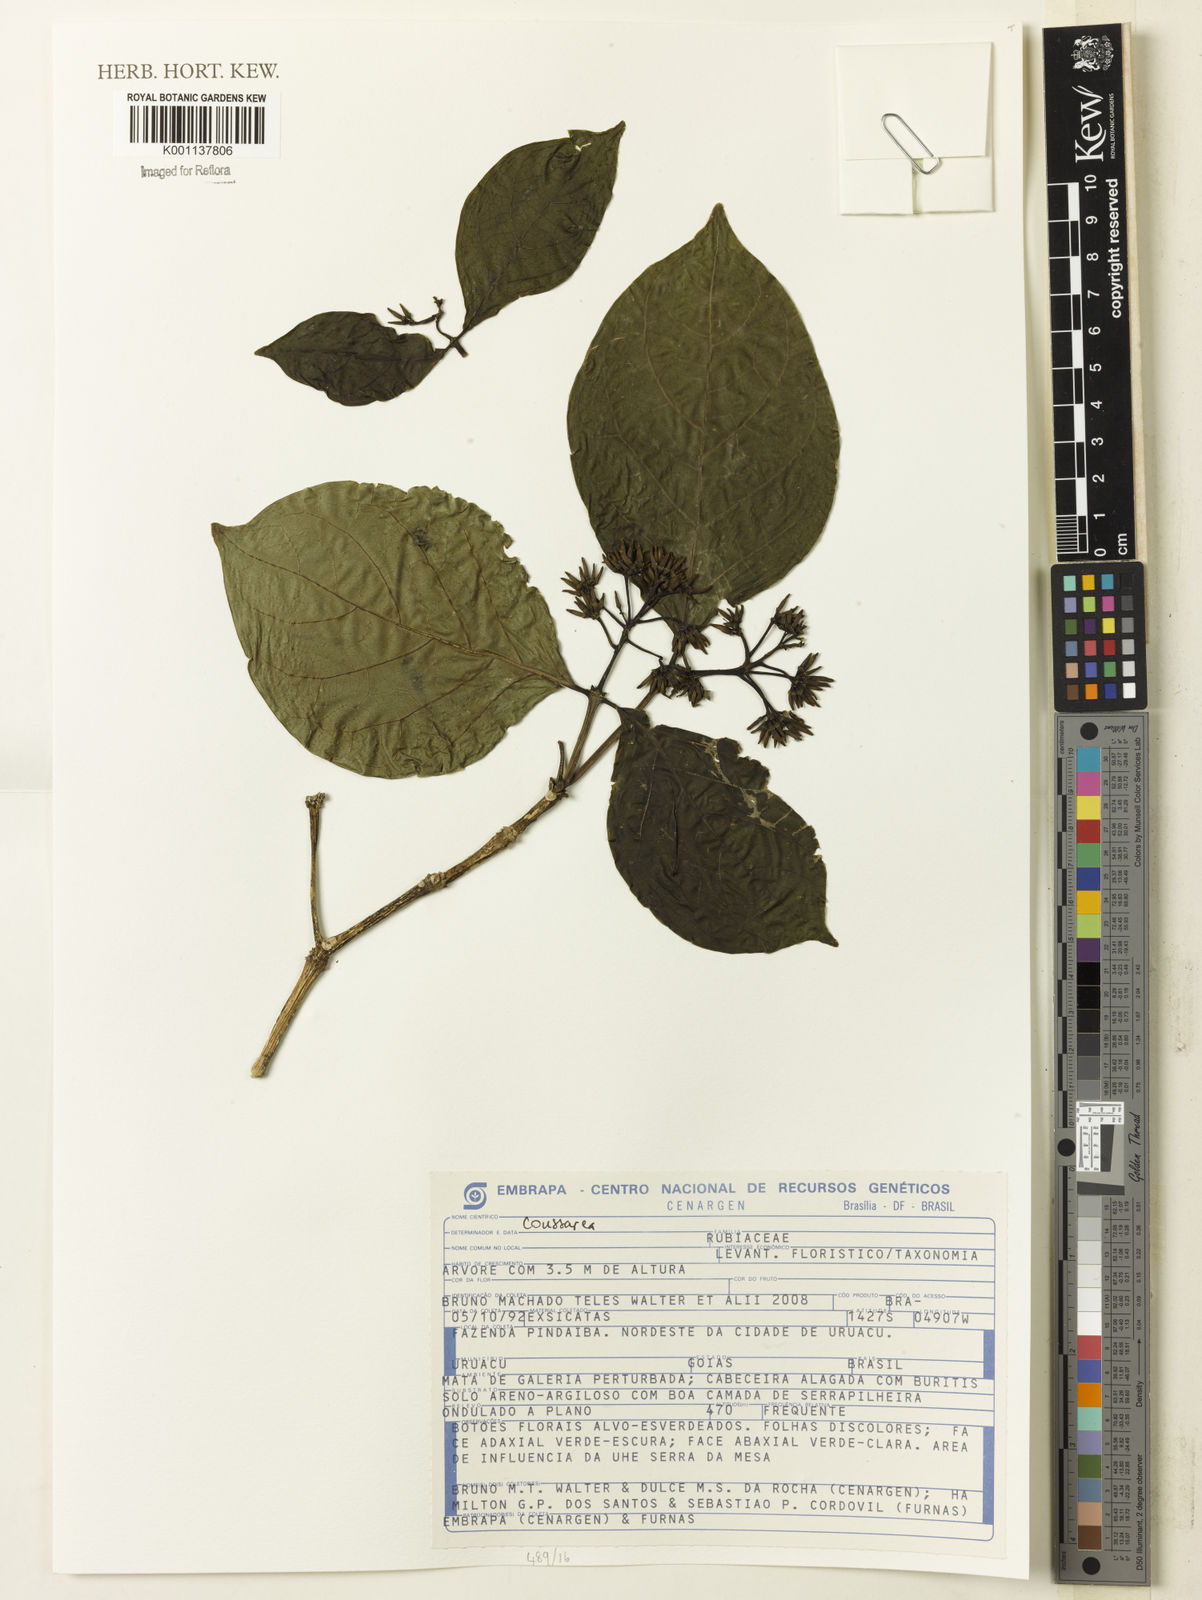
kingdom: Plantae
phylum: Tracheophyta
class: Magnoliopsida
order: Gentianales
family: Rubiaceae
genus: Coussarea
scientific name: Coussarea
